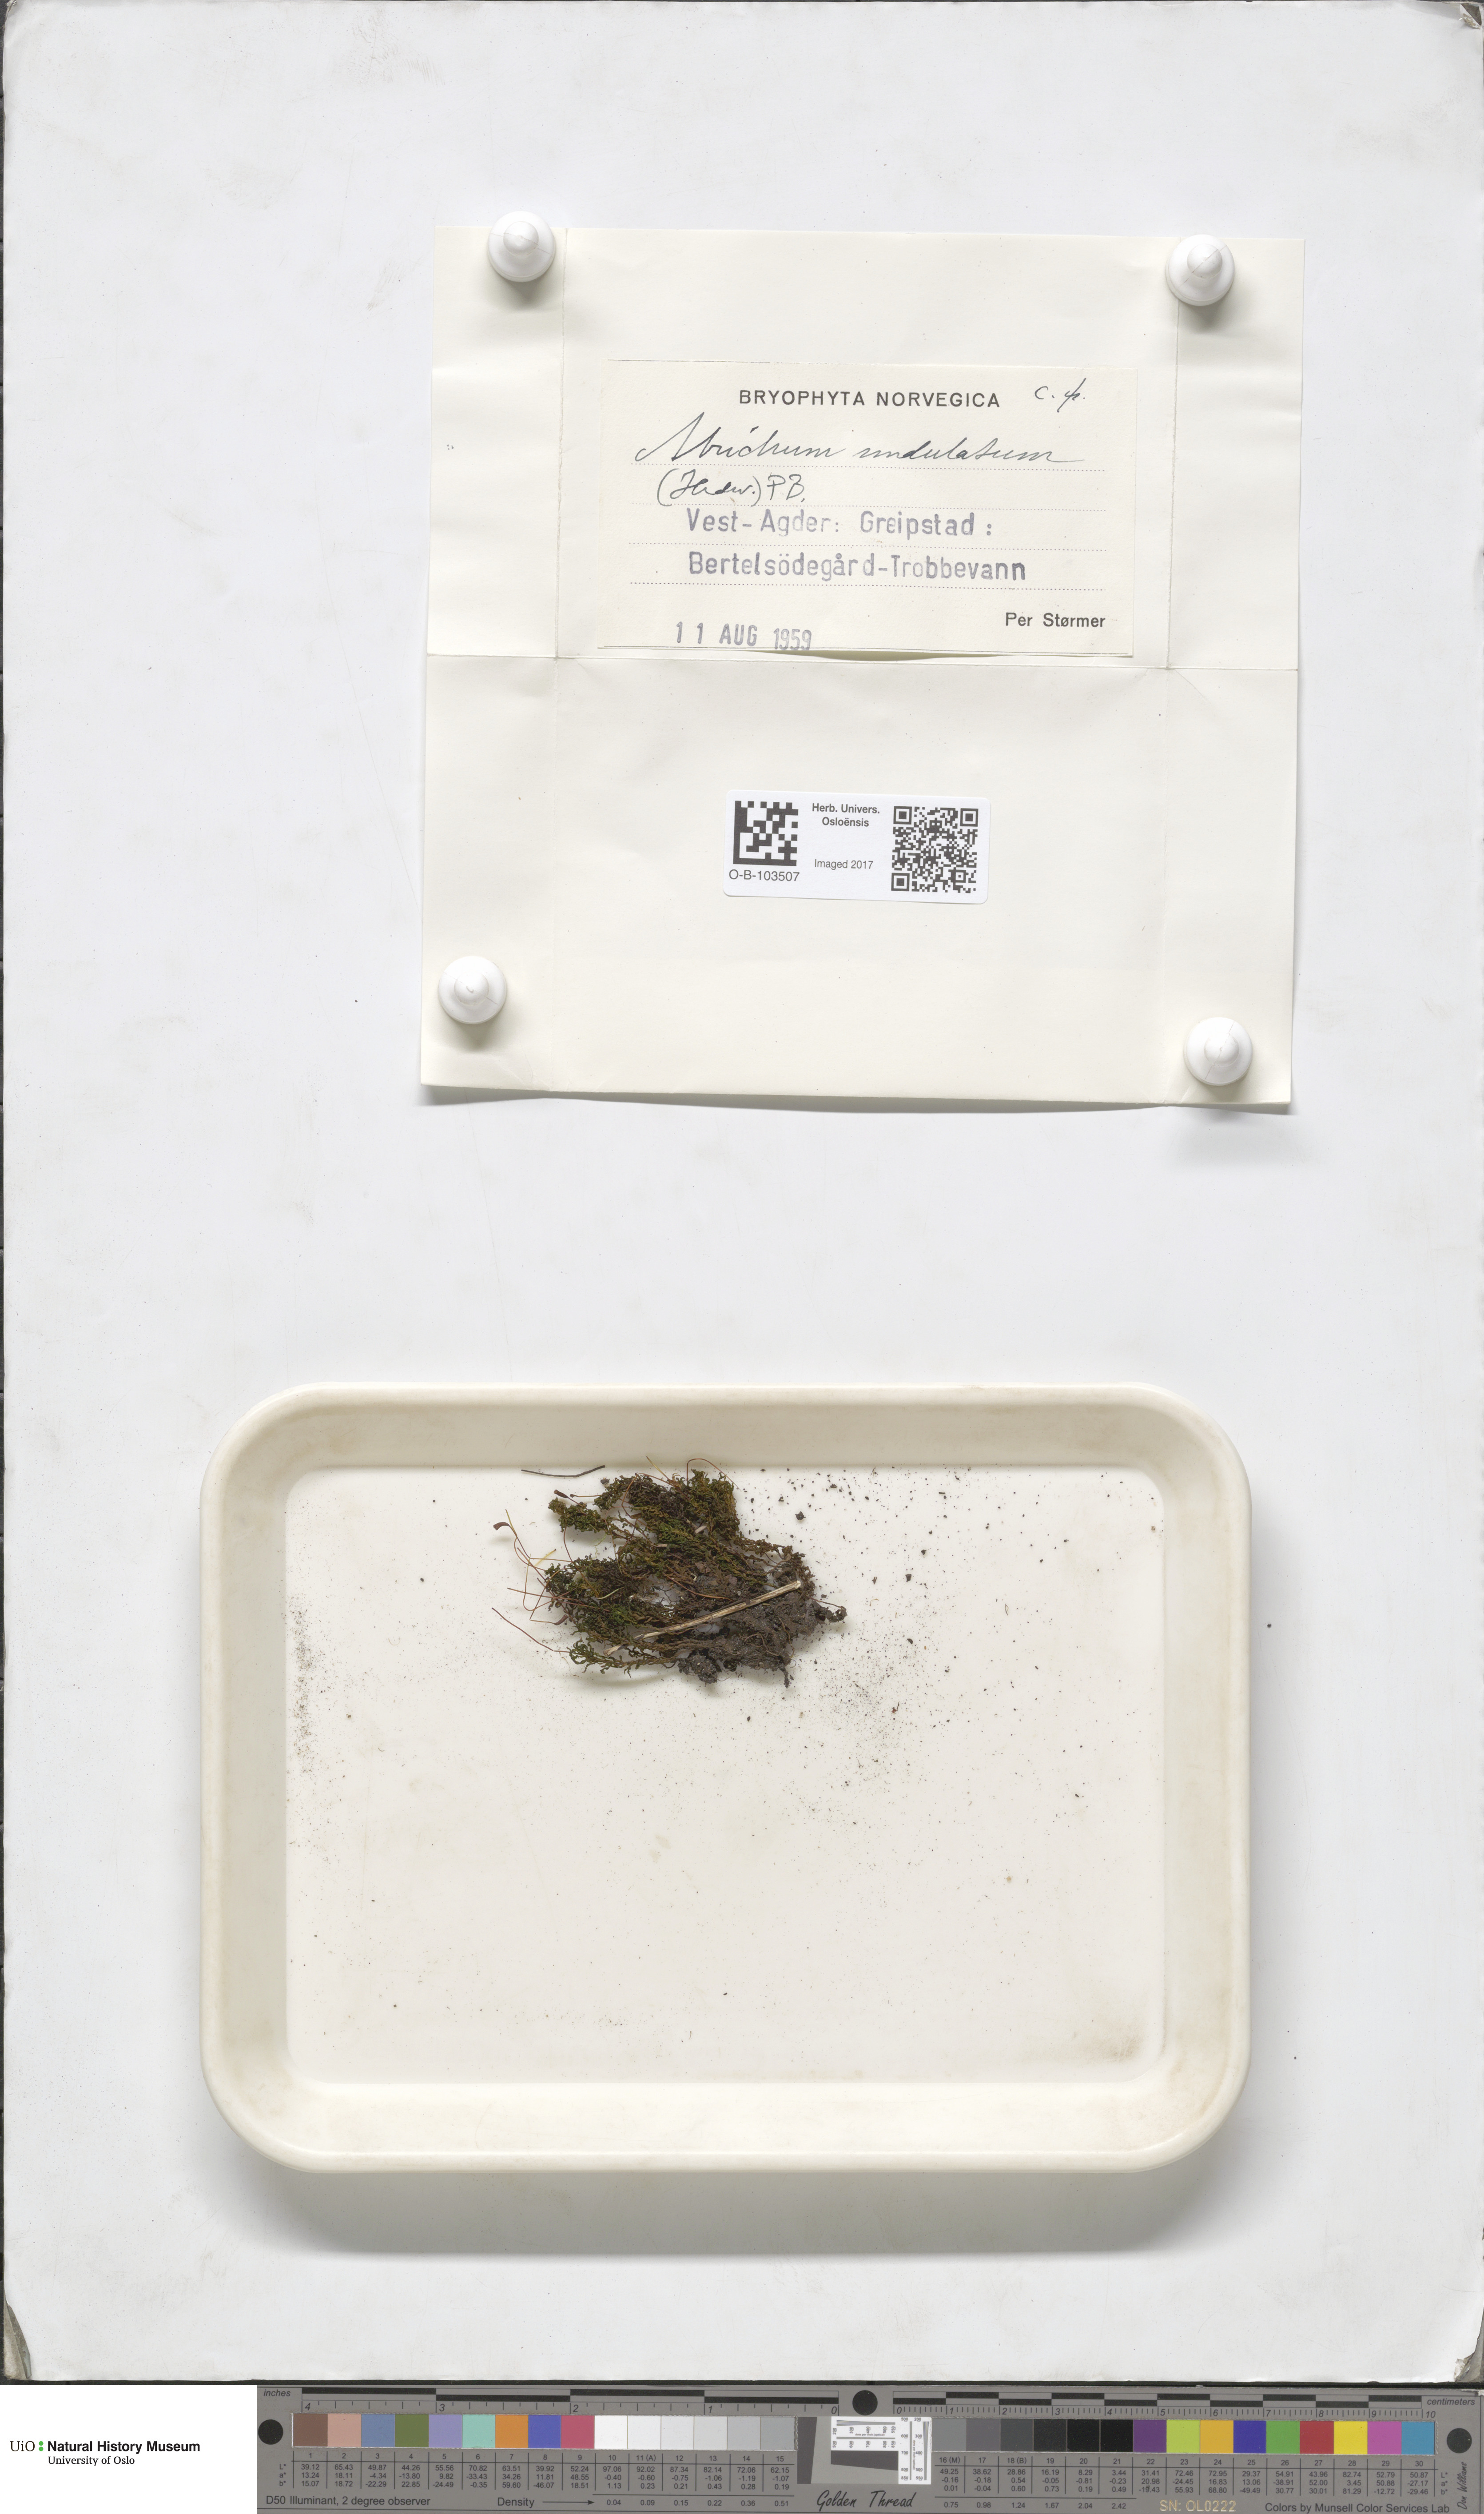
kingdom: Plantae
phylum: Bryophyta
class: Polytrichopsida
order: Polytrichales
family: Polytrichaceae
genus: Atrichum
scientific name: Atrichum undulatum
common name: Common smoothcap
